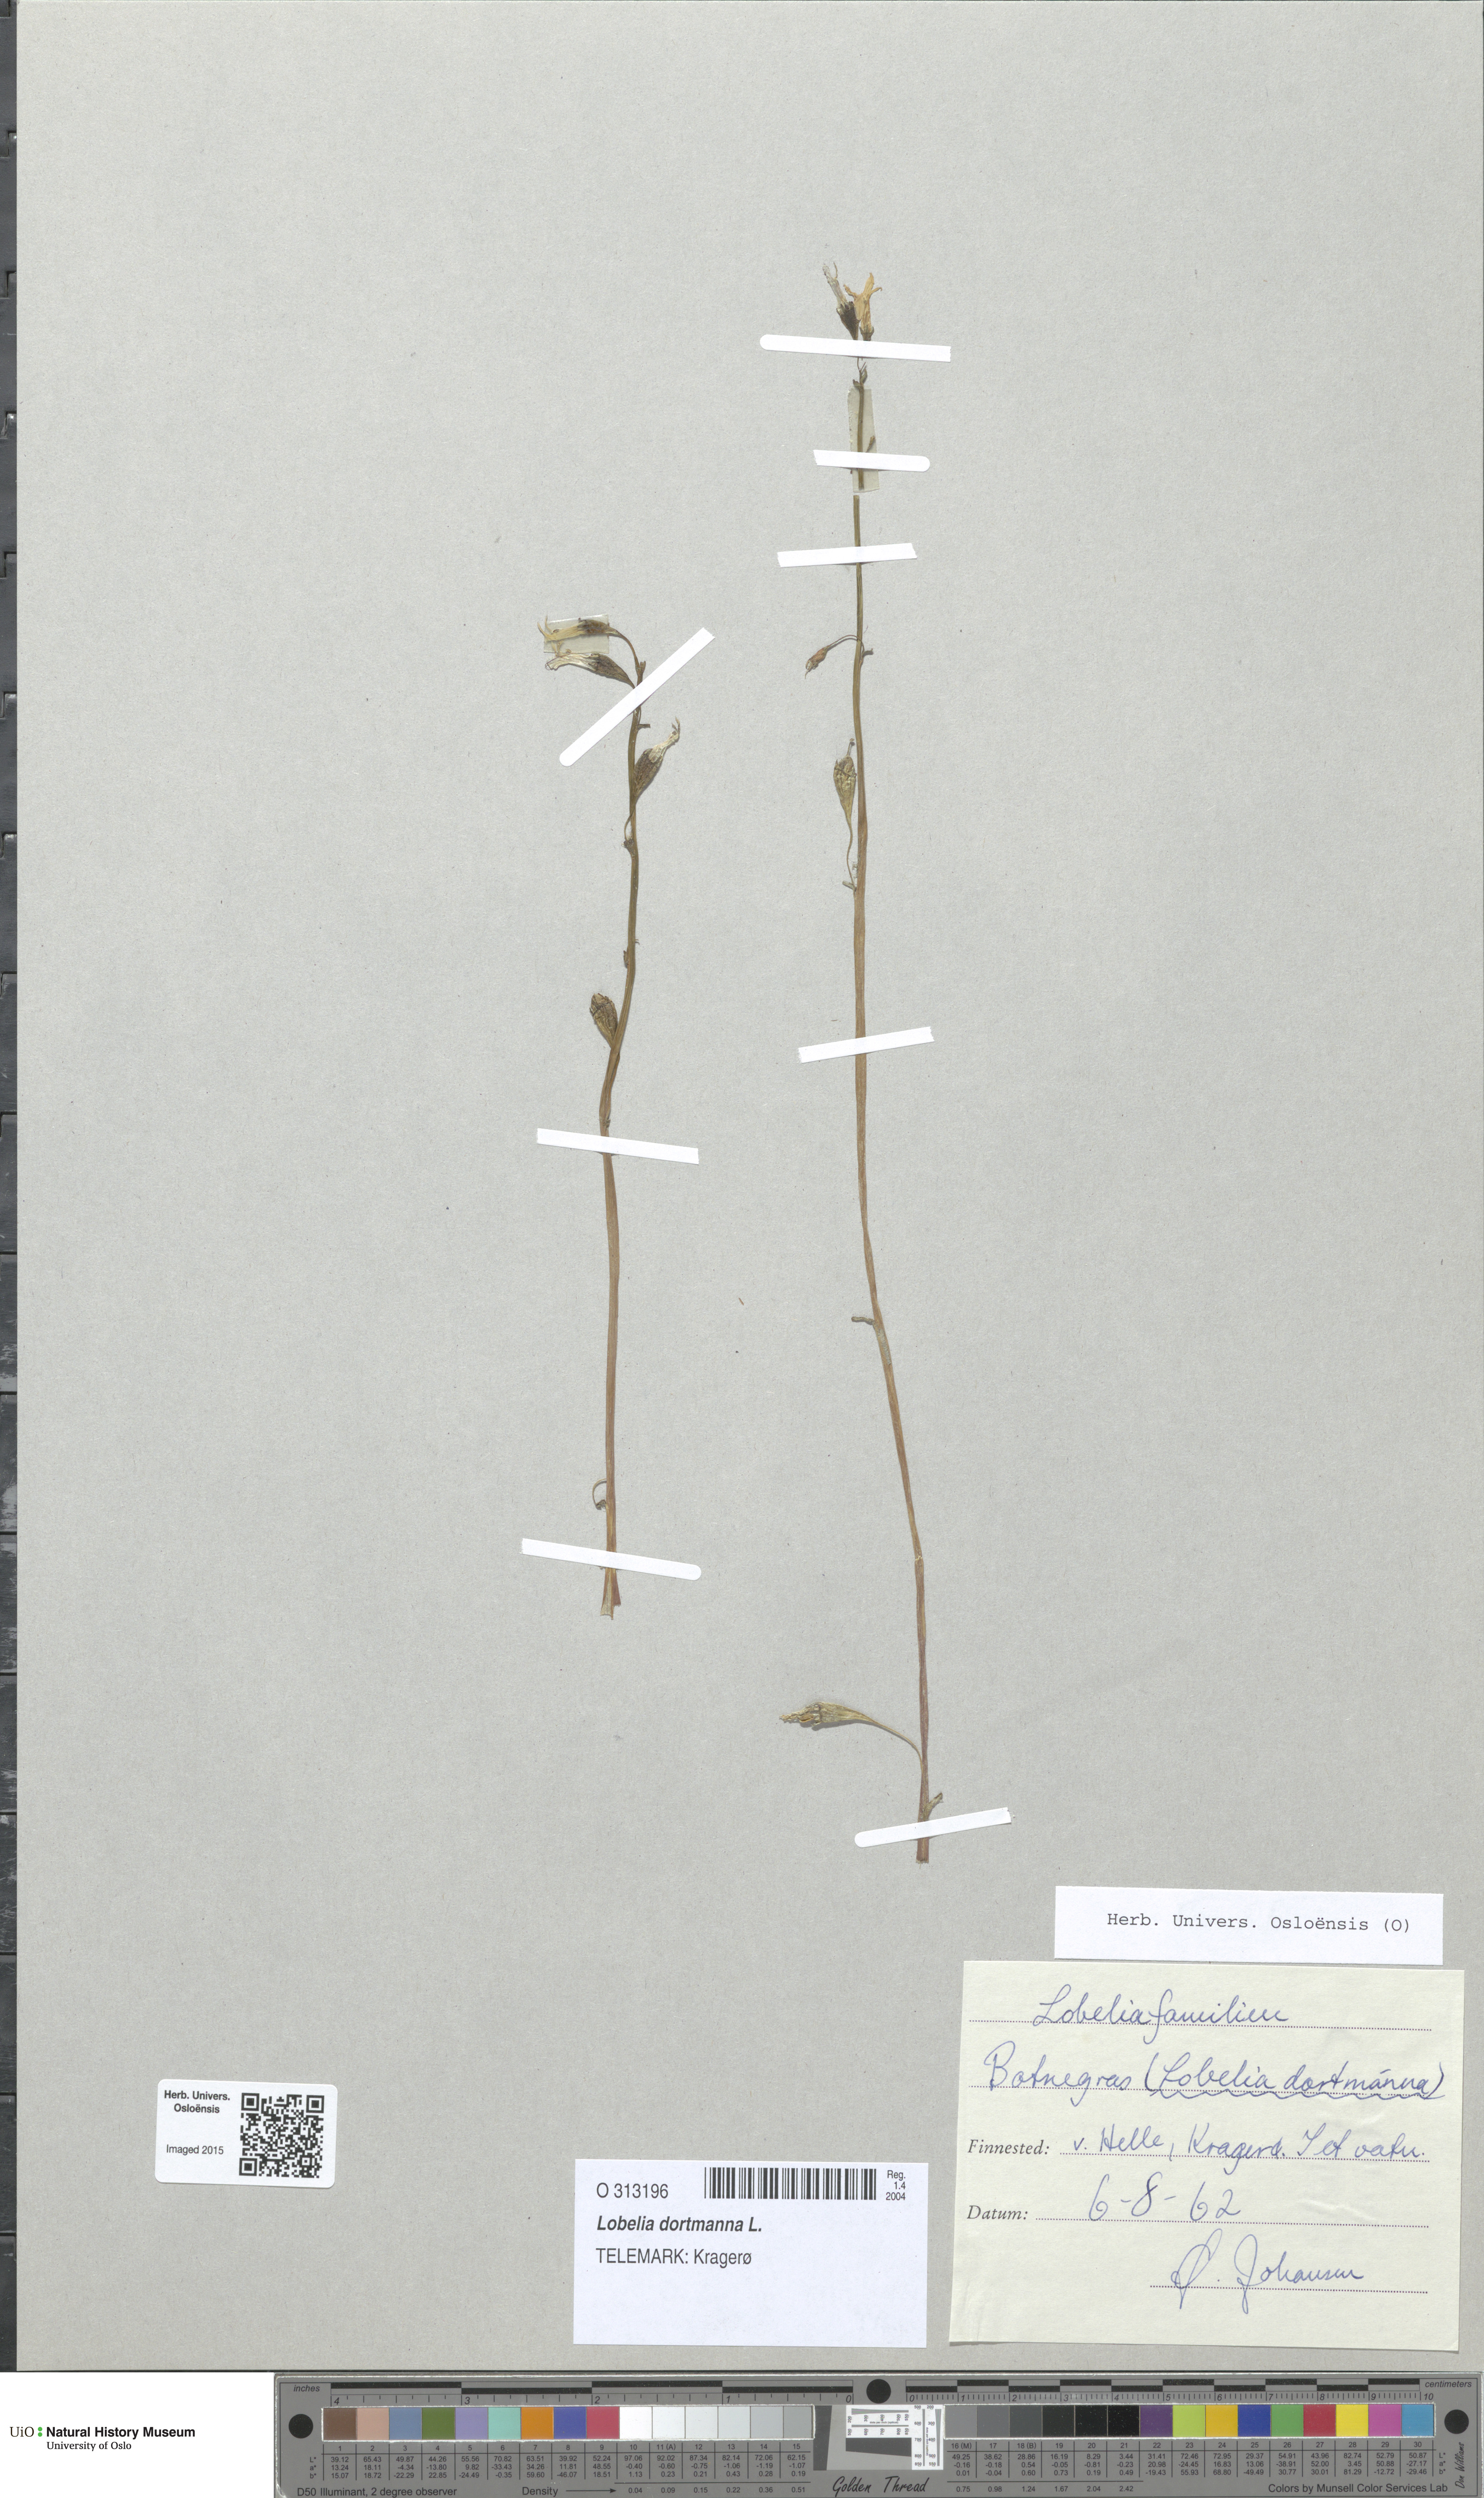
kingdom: Plantae
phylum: Tracheophyta
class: Magnoliopsida
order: Asterales
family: Campanulaceae
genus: Lobelia
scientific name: Lobelia dortmanna
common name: Water lobelia
